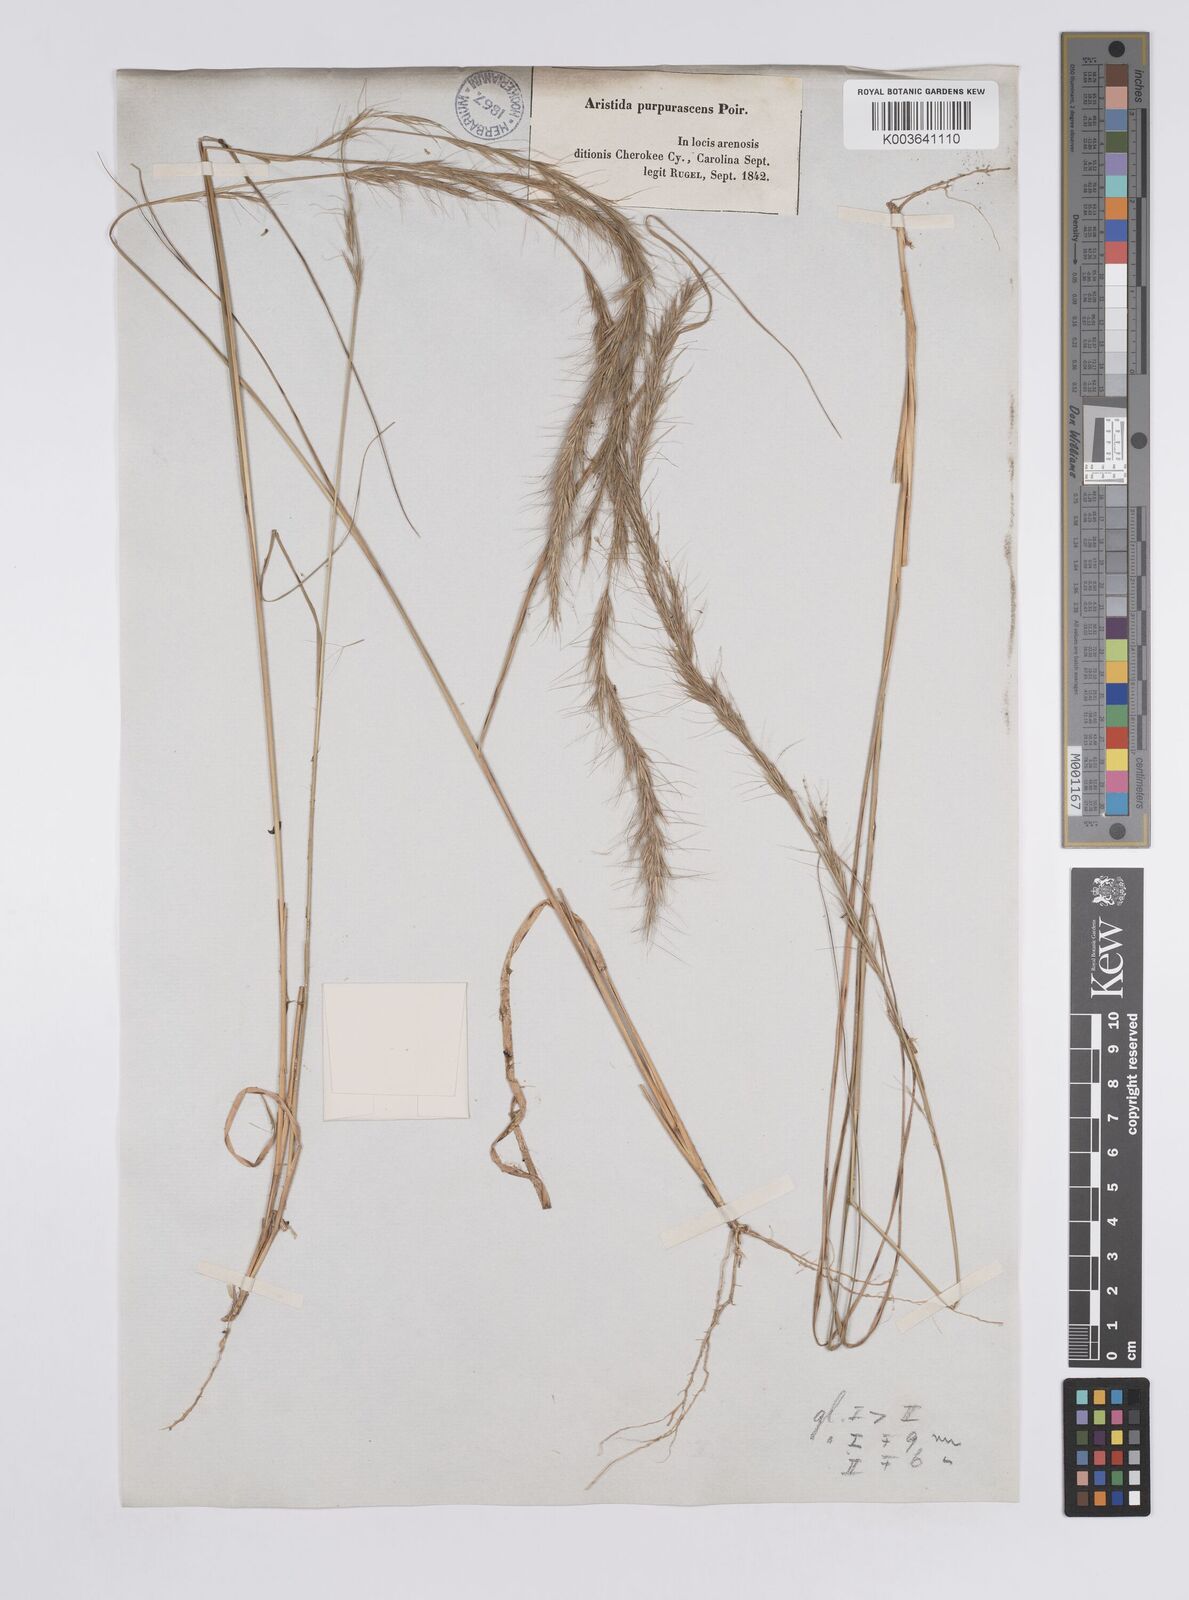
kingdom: Plantae
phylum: Tracheophyta
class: Liliopsida
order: Poales
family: Poaceae
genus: Aristida
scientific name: Aristida purpurascens
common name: Arrow-feather
